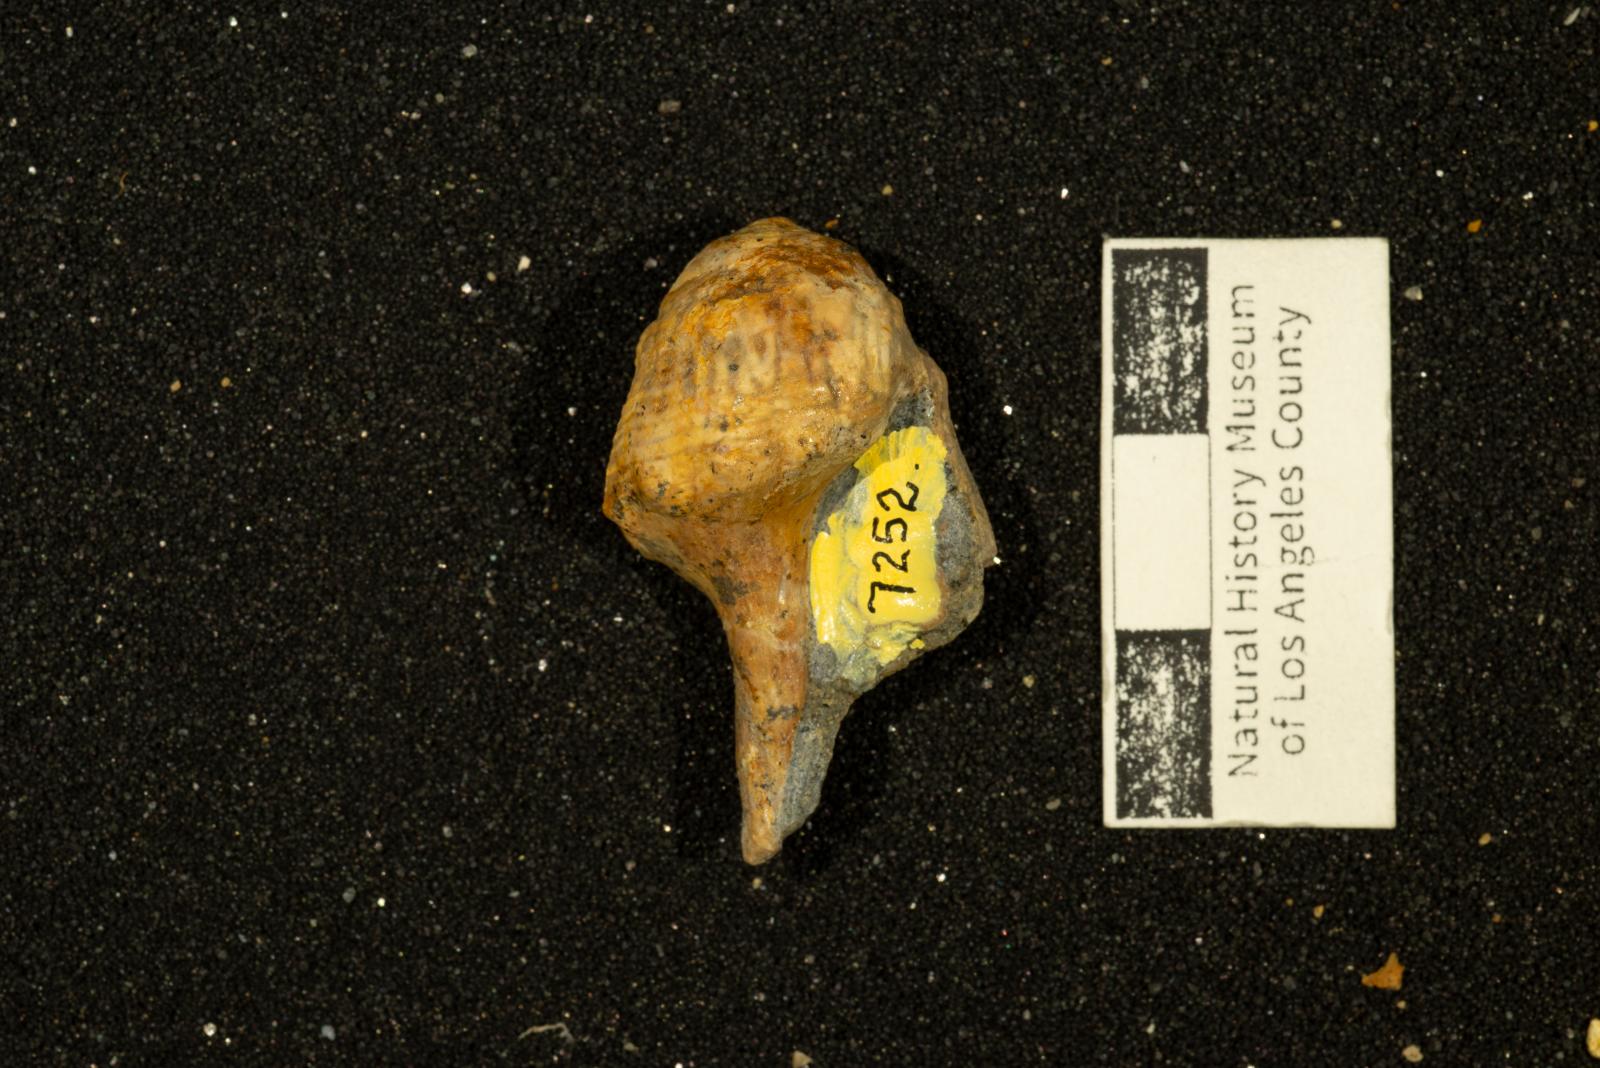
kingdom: Animalia
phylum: Mollusca
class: Gastropoda
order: Neogastropoda
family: Perissityidae
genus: Perissitys
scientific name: Perissitys colocara
